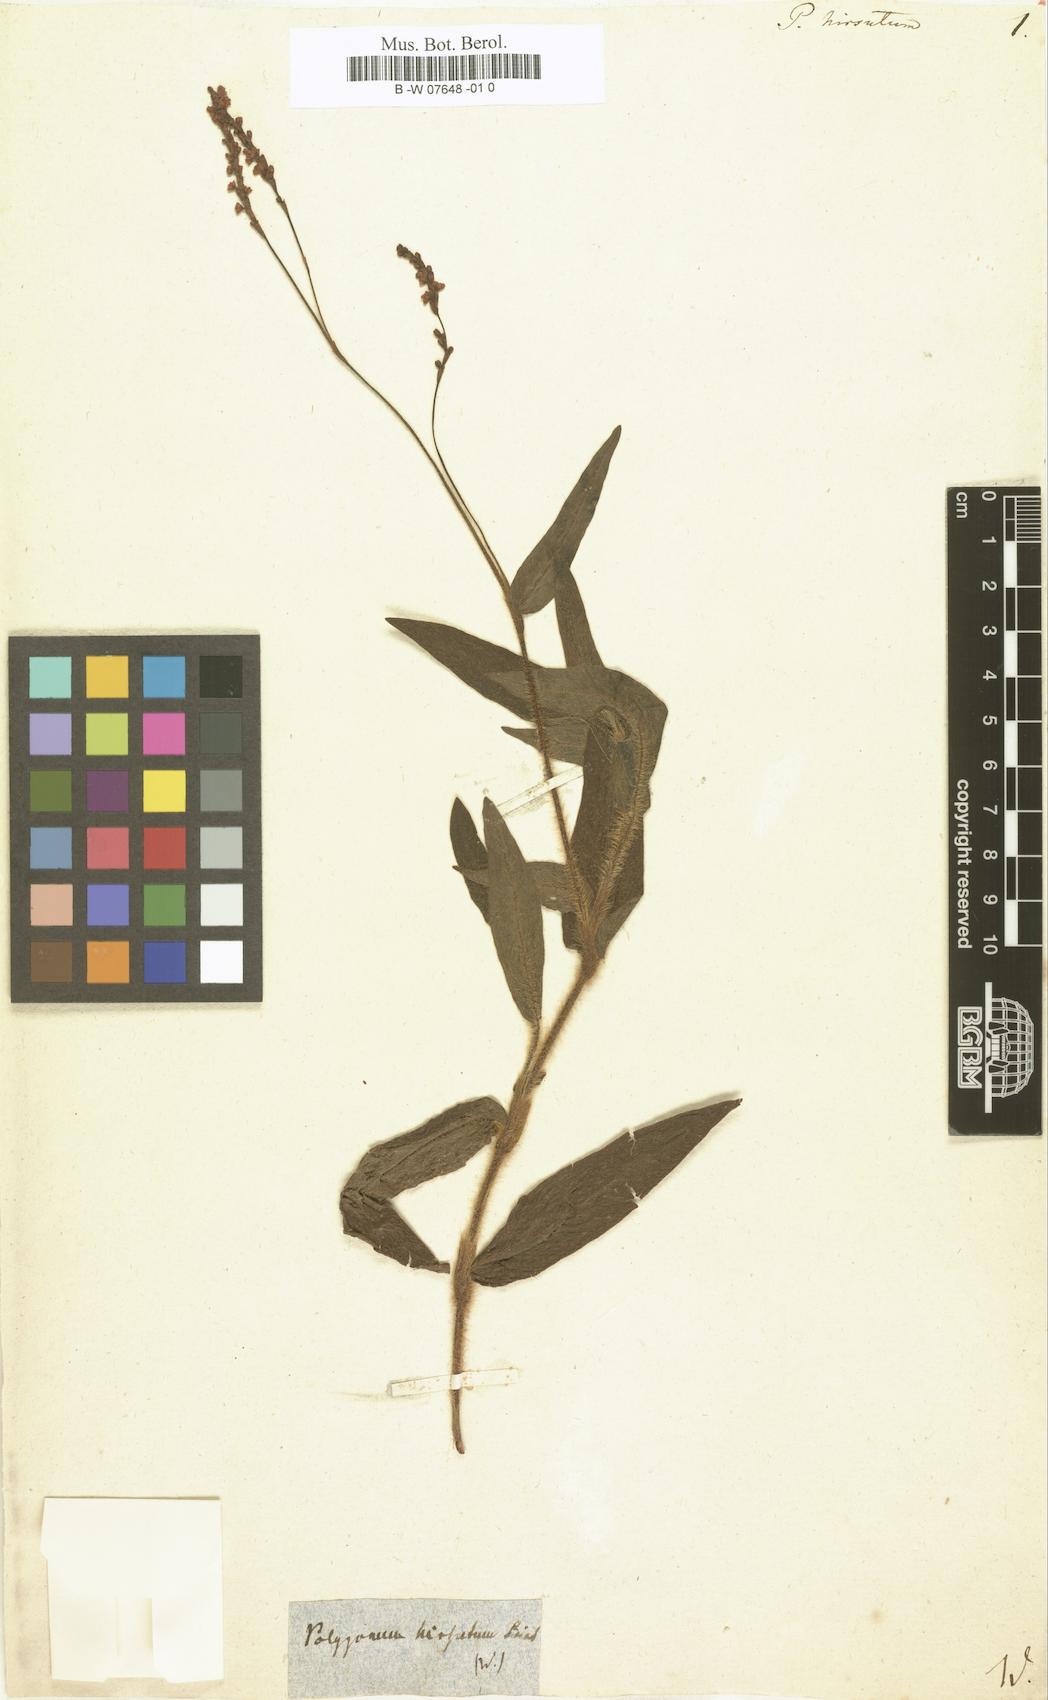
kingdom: Plantae
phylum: Tracheophyta
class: Magnoliopsida
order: Caryophyllales
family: Polygonaceae
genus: Persicaria
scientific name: Persicaria hirsuta
